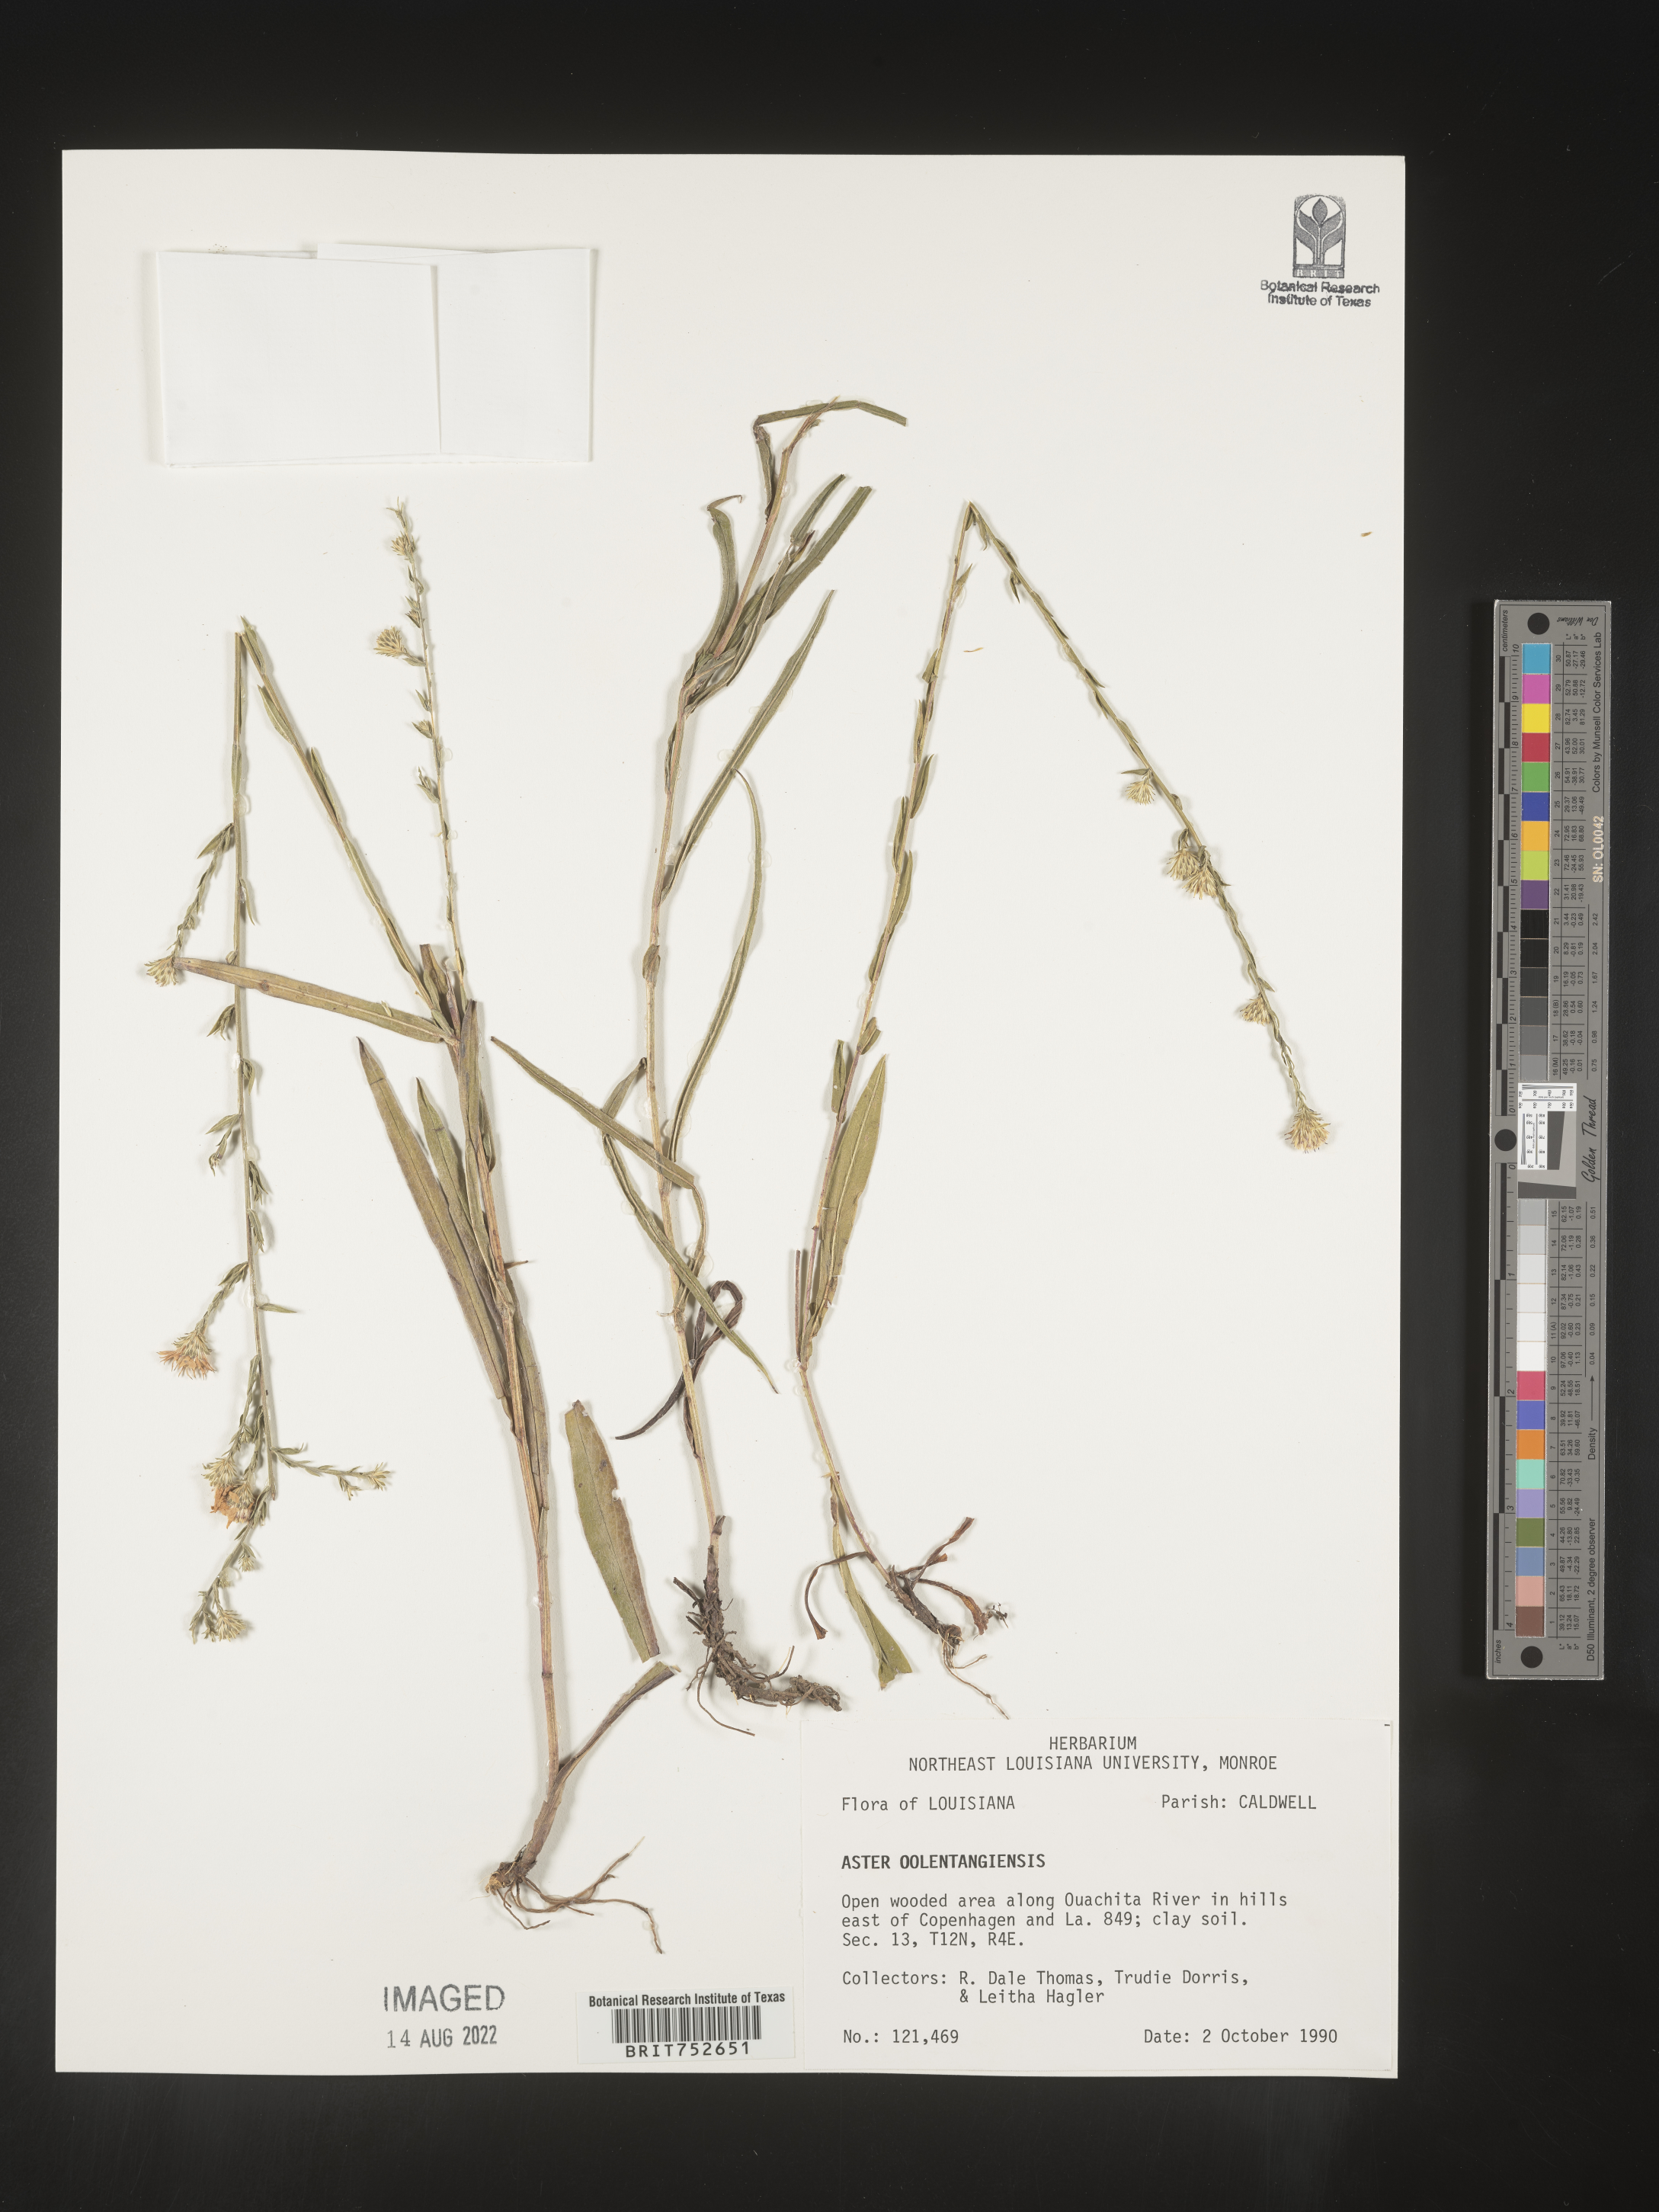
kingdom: Plantae
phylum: Tracheophyta
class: Magnoliopsida
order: Asterales
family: Asteraceae
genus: Symphyotrichum
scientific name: Symphyotrichum laeve
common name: Glaucous aster
